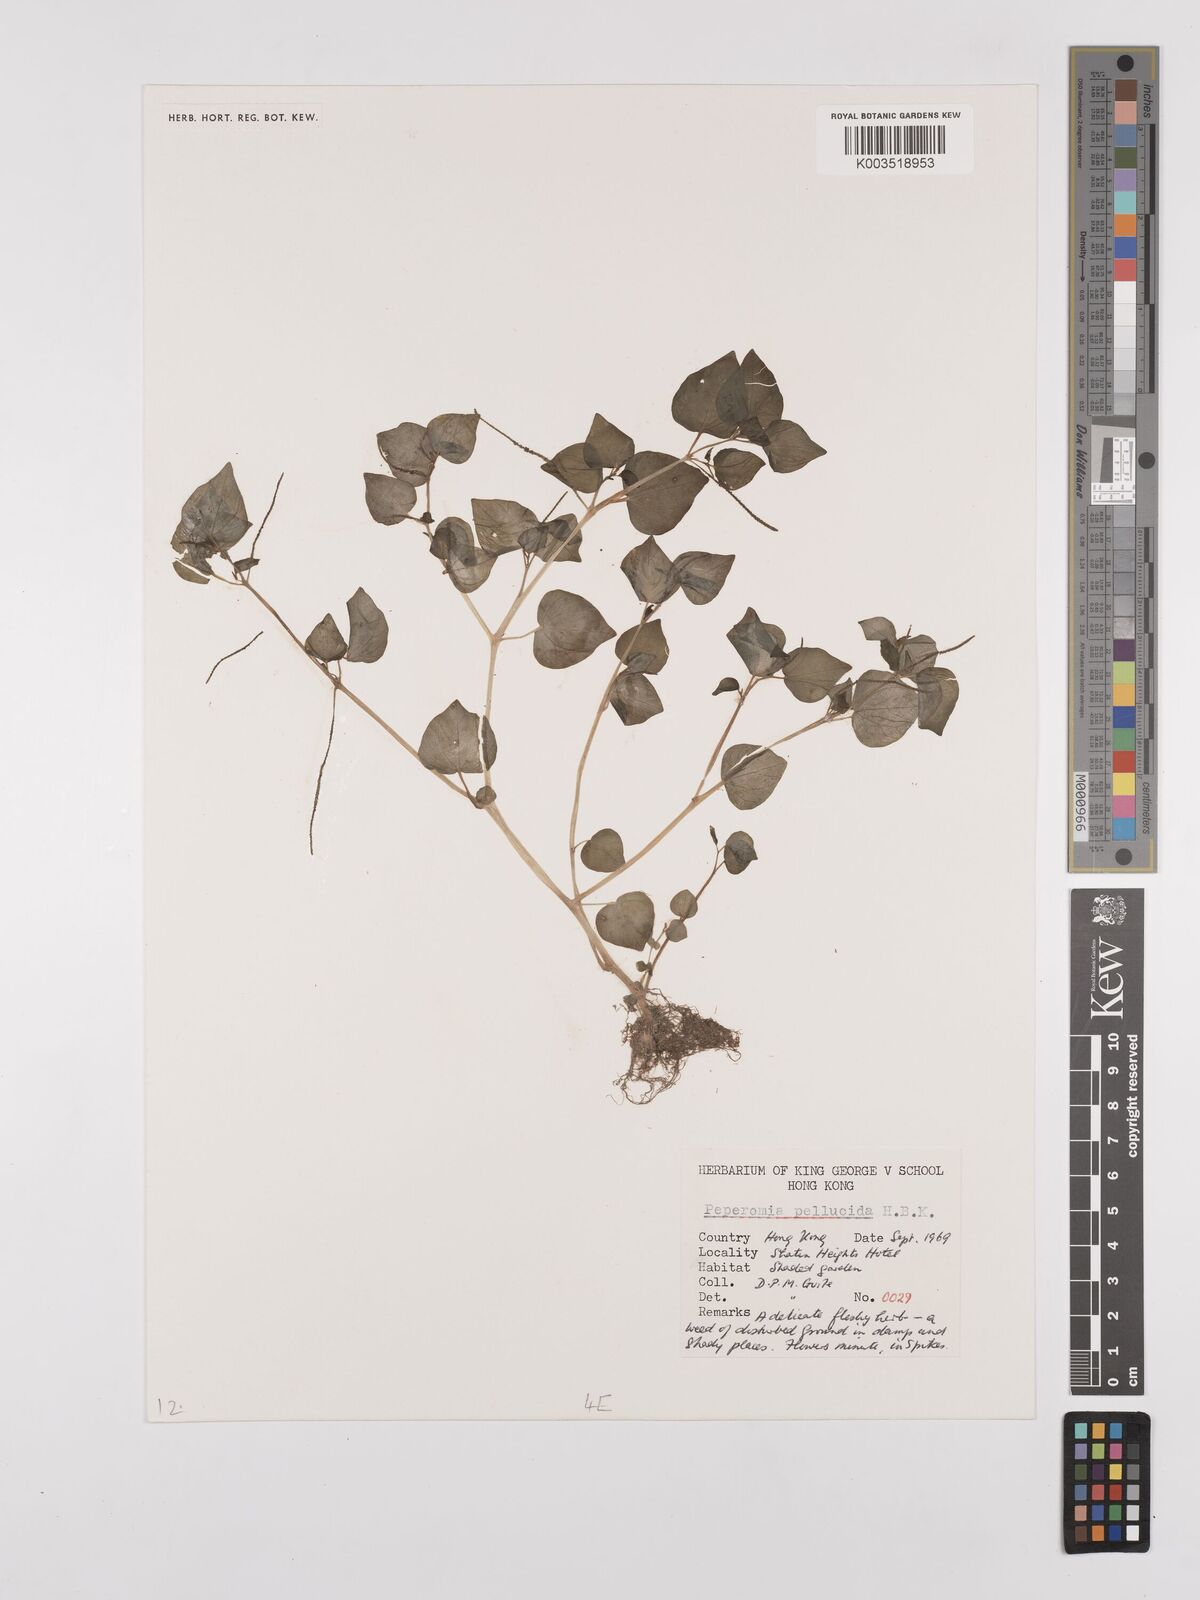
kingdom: Plantae
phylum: Tracheophyta
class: Magnoliopsida
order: Piperales
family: Piperaceae
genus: Peperomia
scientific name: Peperomia pellucida
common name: Man to man
